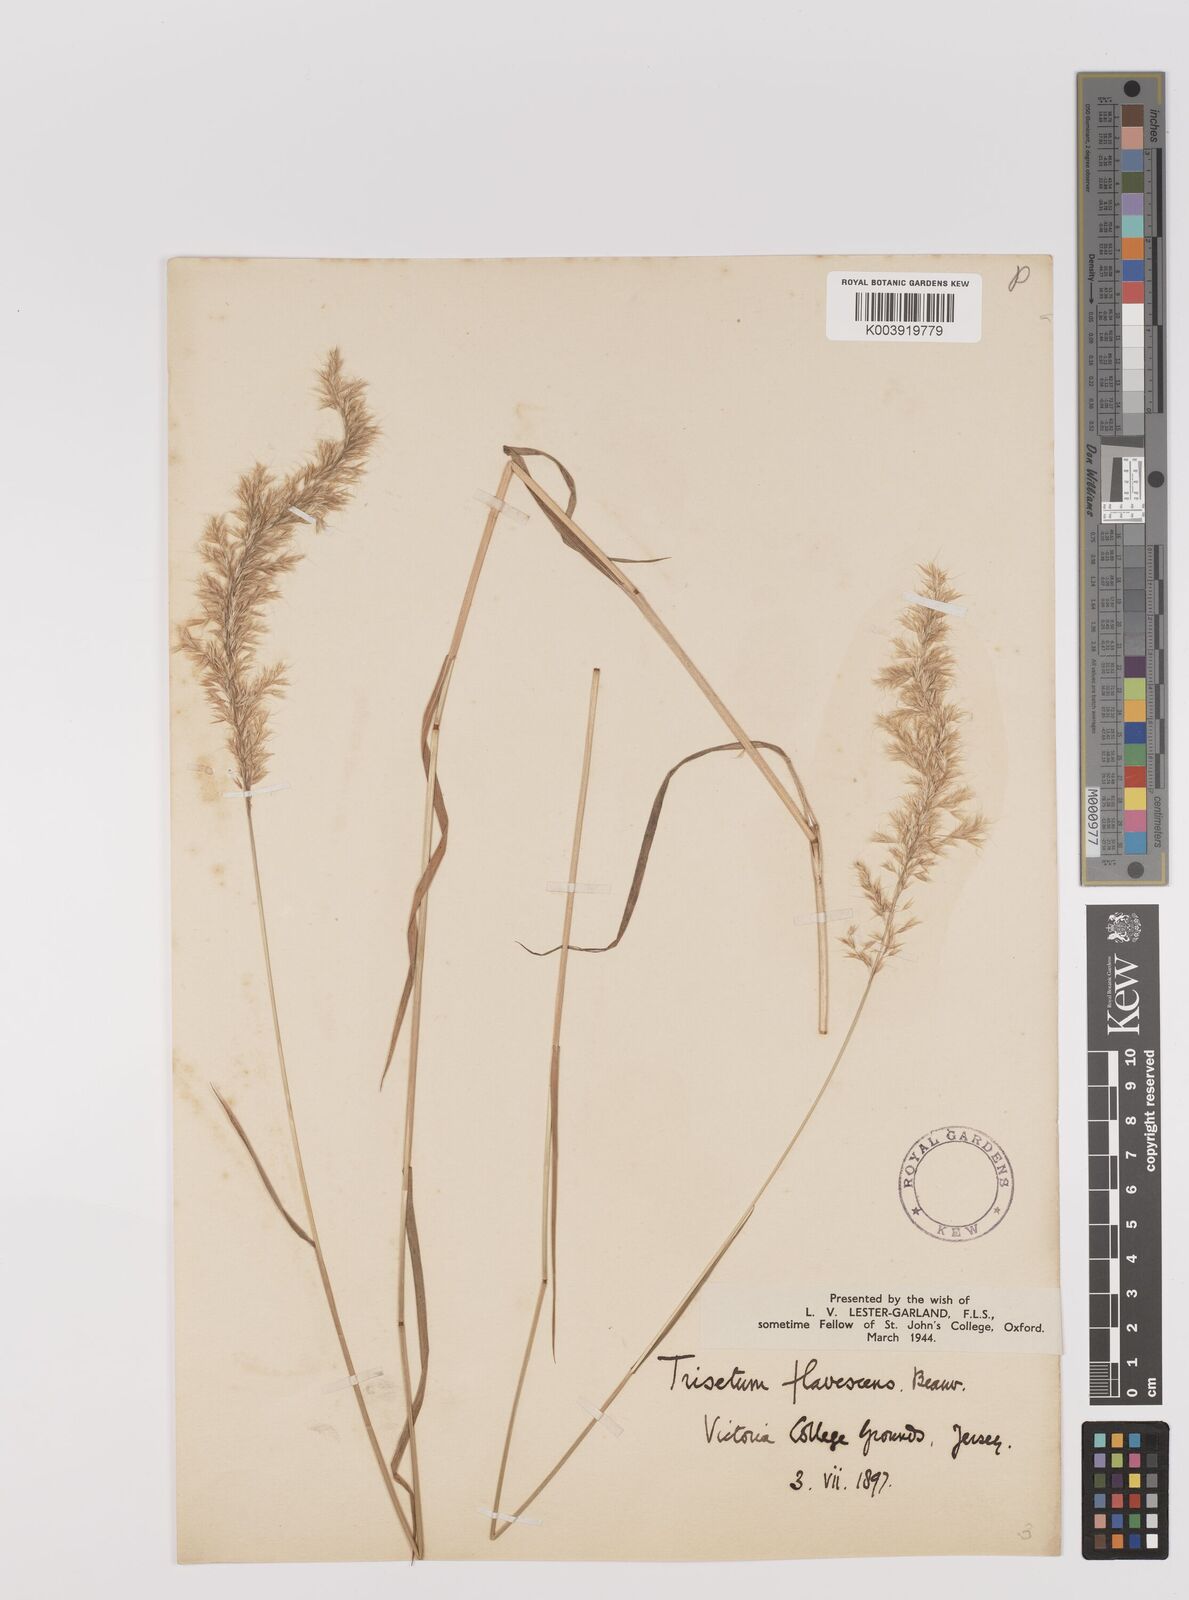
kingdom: Plantae
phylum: Tracheophyta
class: Liliopsida
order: Poales
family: Poaceae
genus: Trisetum
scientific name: Trisetum flavescens
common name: Yellow oat-grass
